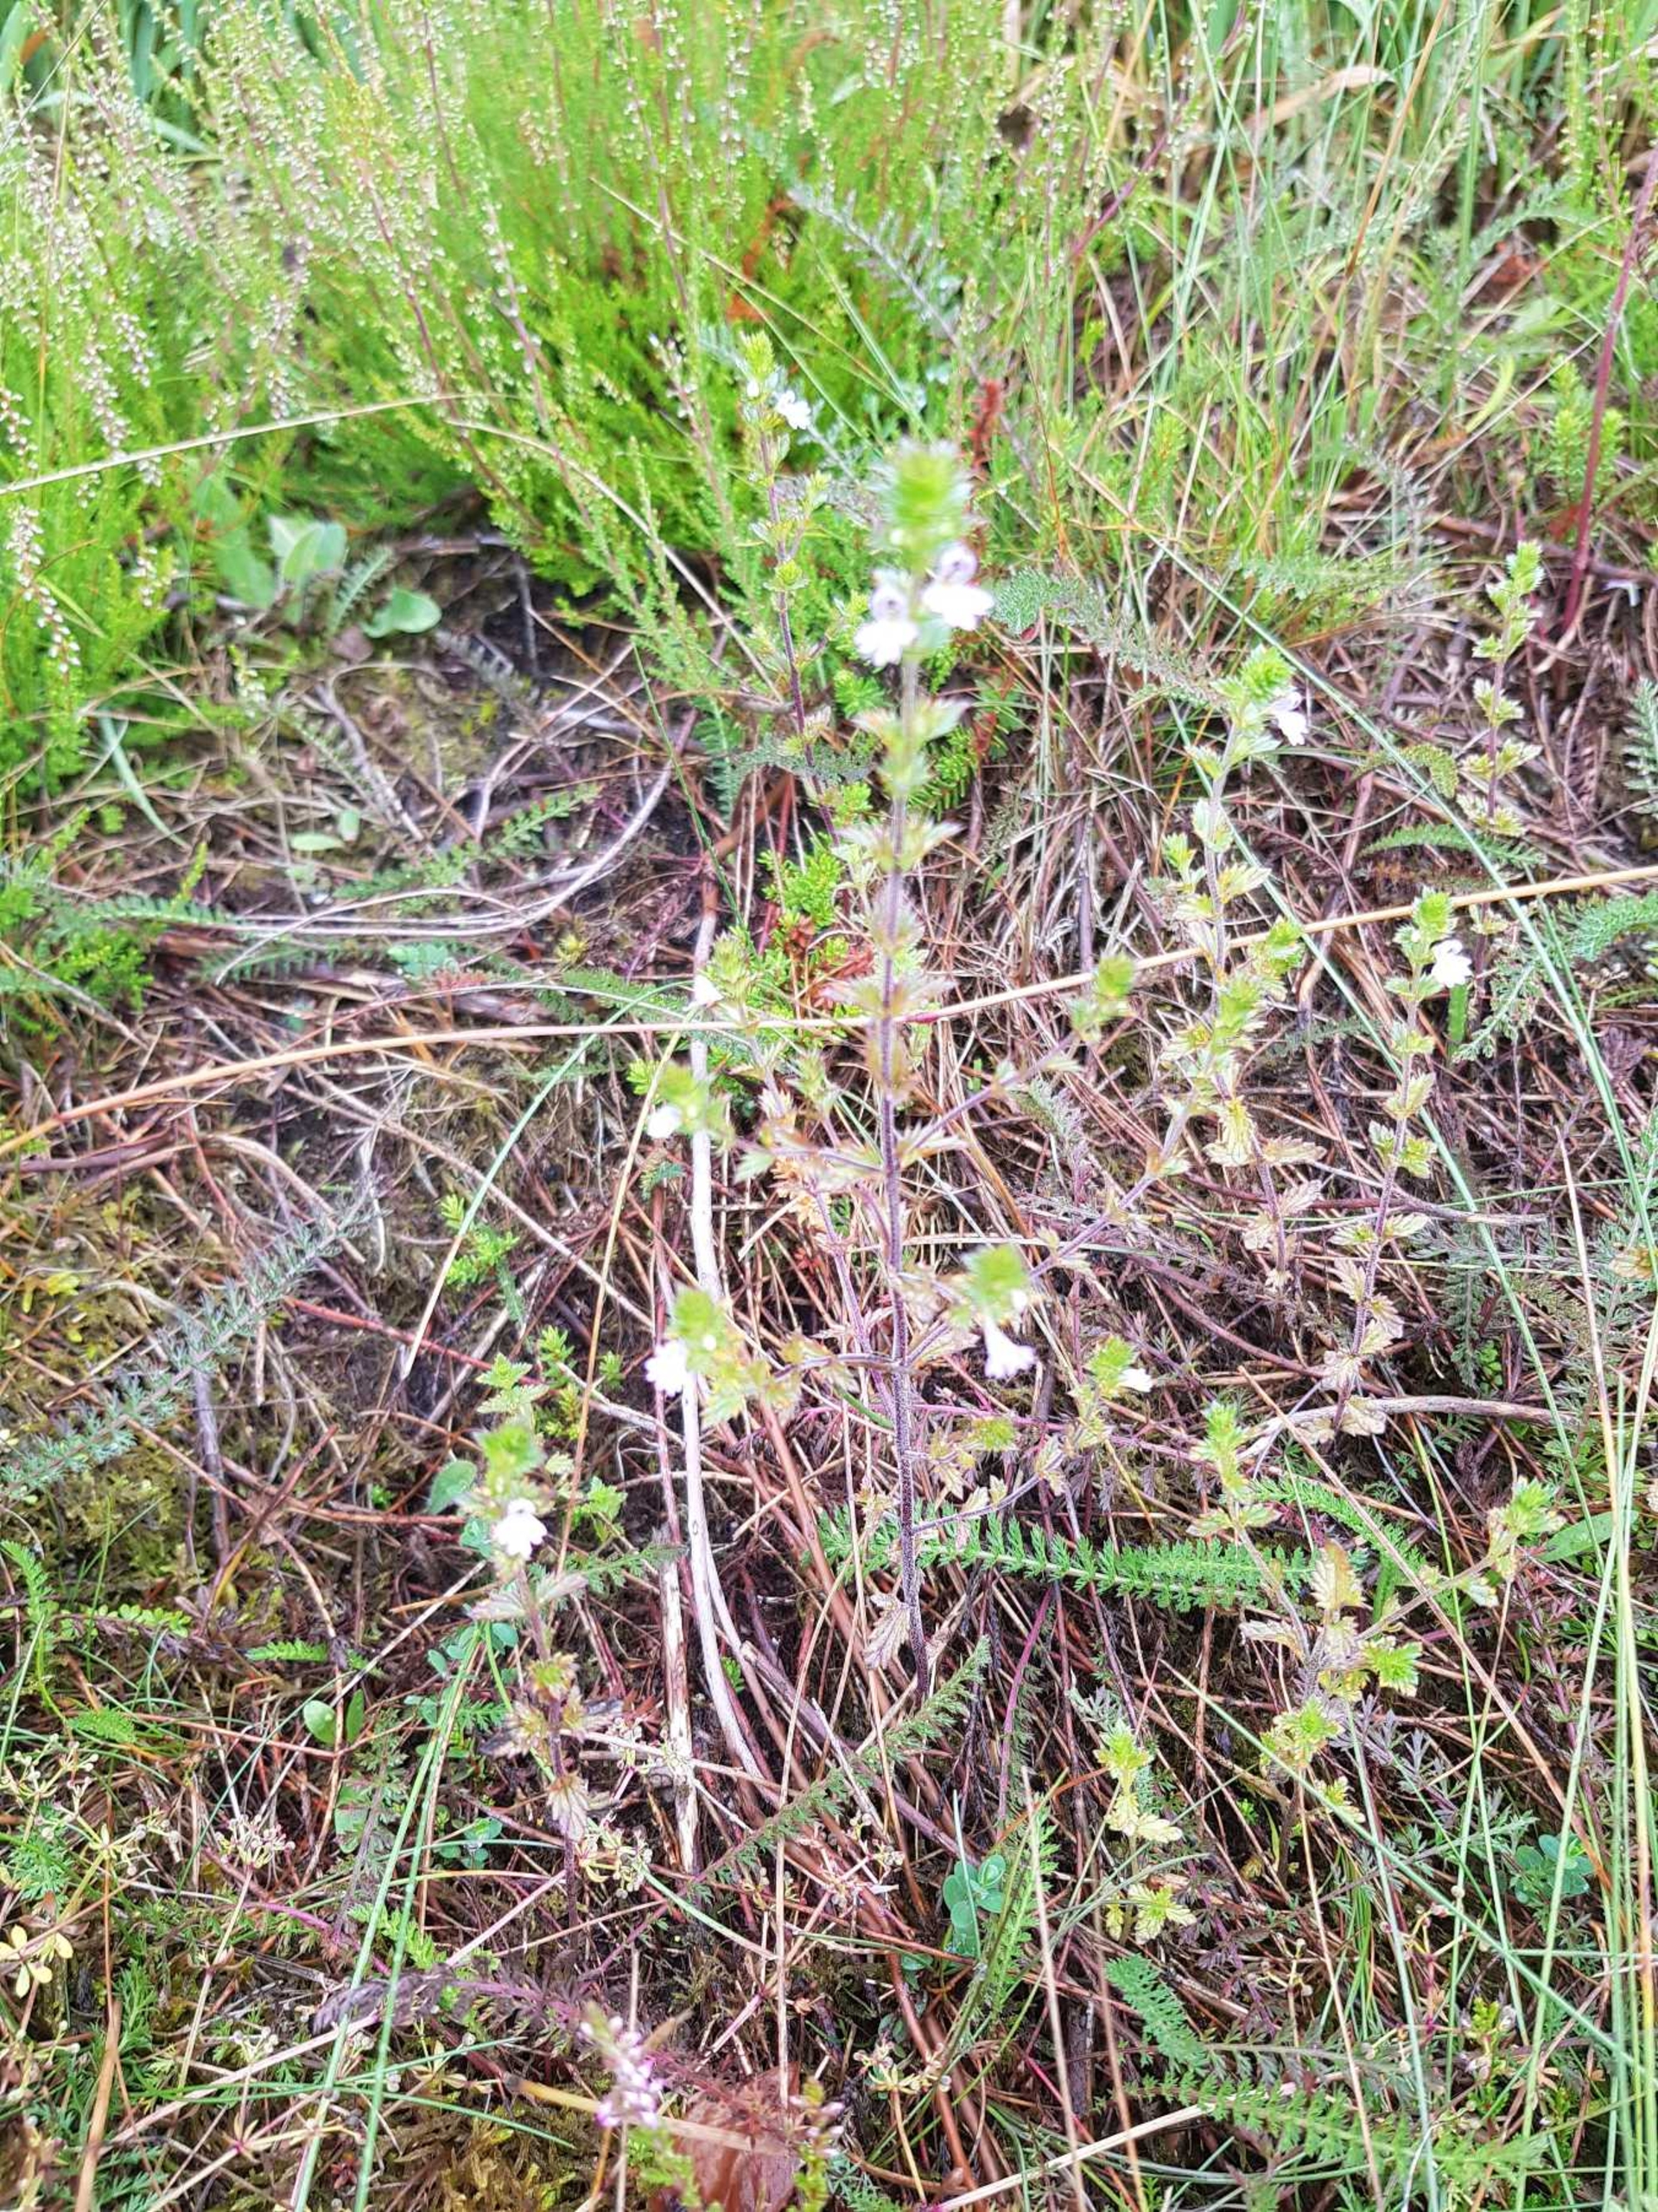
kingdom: Plantae
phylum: Tracheophyta
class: Magnoliopsida
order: Lamiales
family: Orobanchaceae
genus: Euphrasia
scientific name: Euphrasia stricta
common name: Spids øjentrøst
